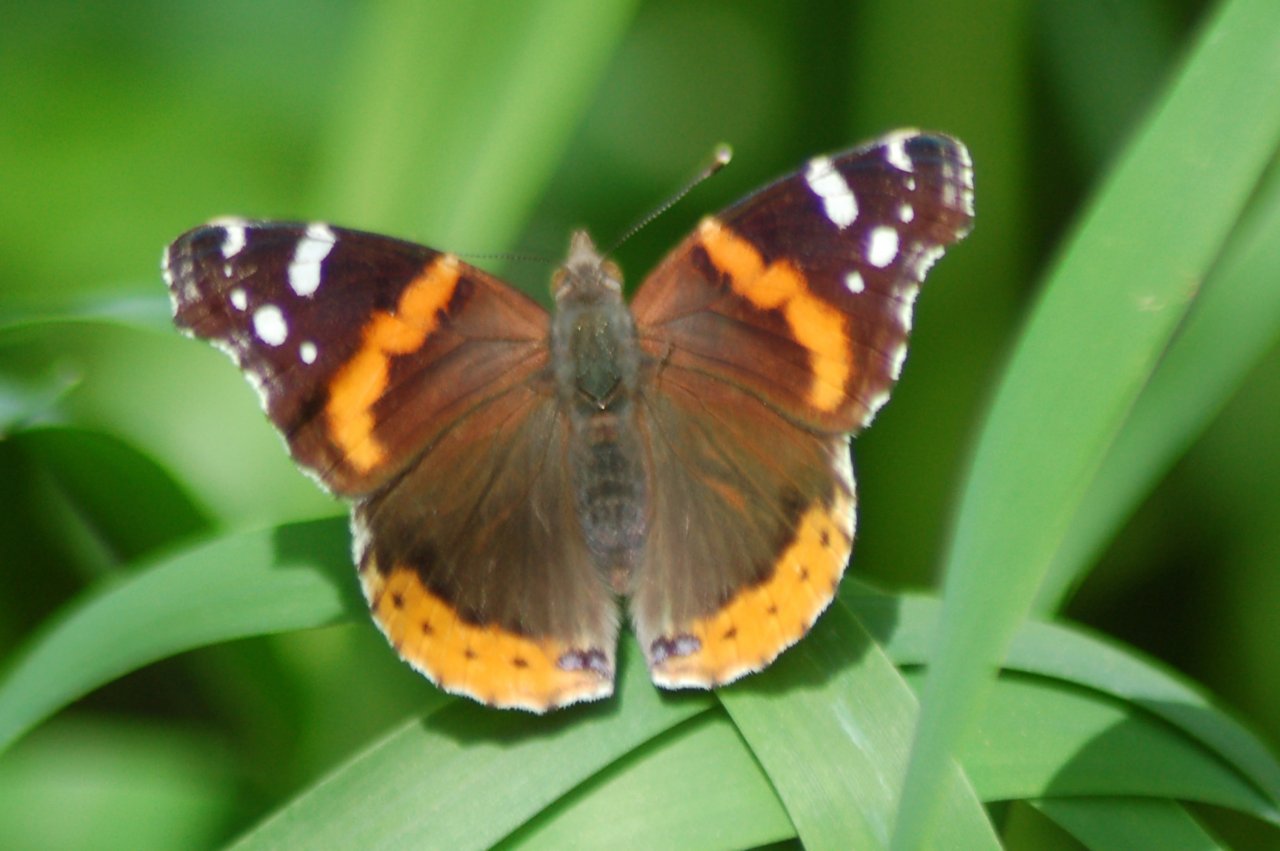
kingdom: Animalia
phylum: Arthropoda
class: Insecta
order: Lepidoptera
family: Nymphalidae
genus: Vanessa
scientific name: Vanessa atalanta
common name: Red Admiral
